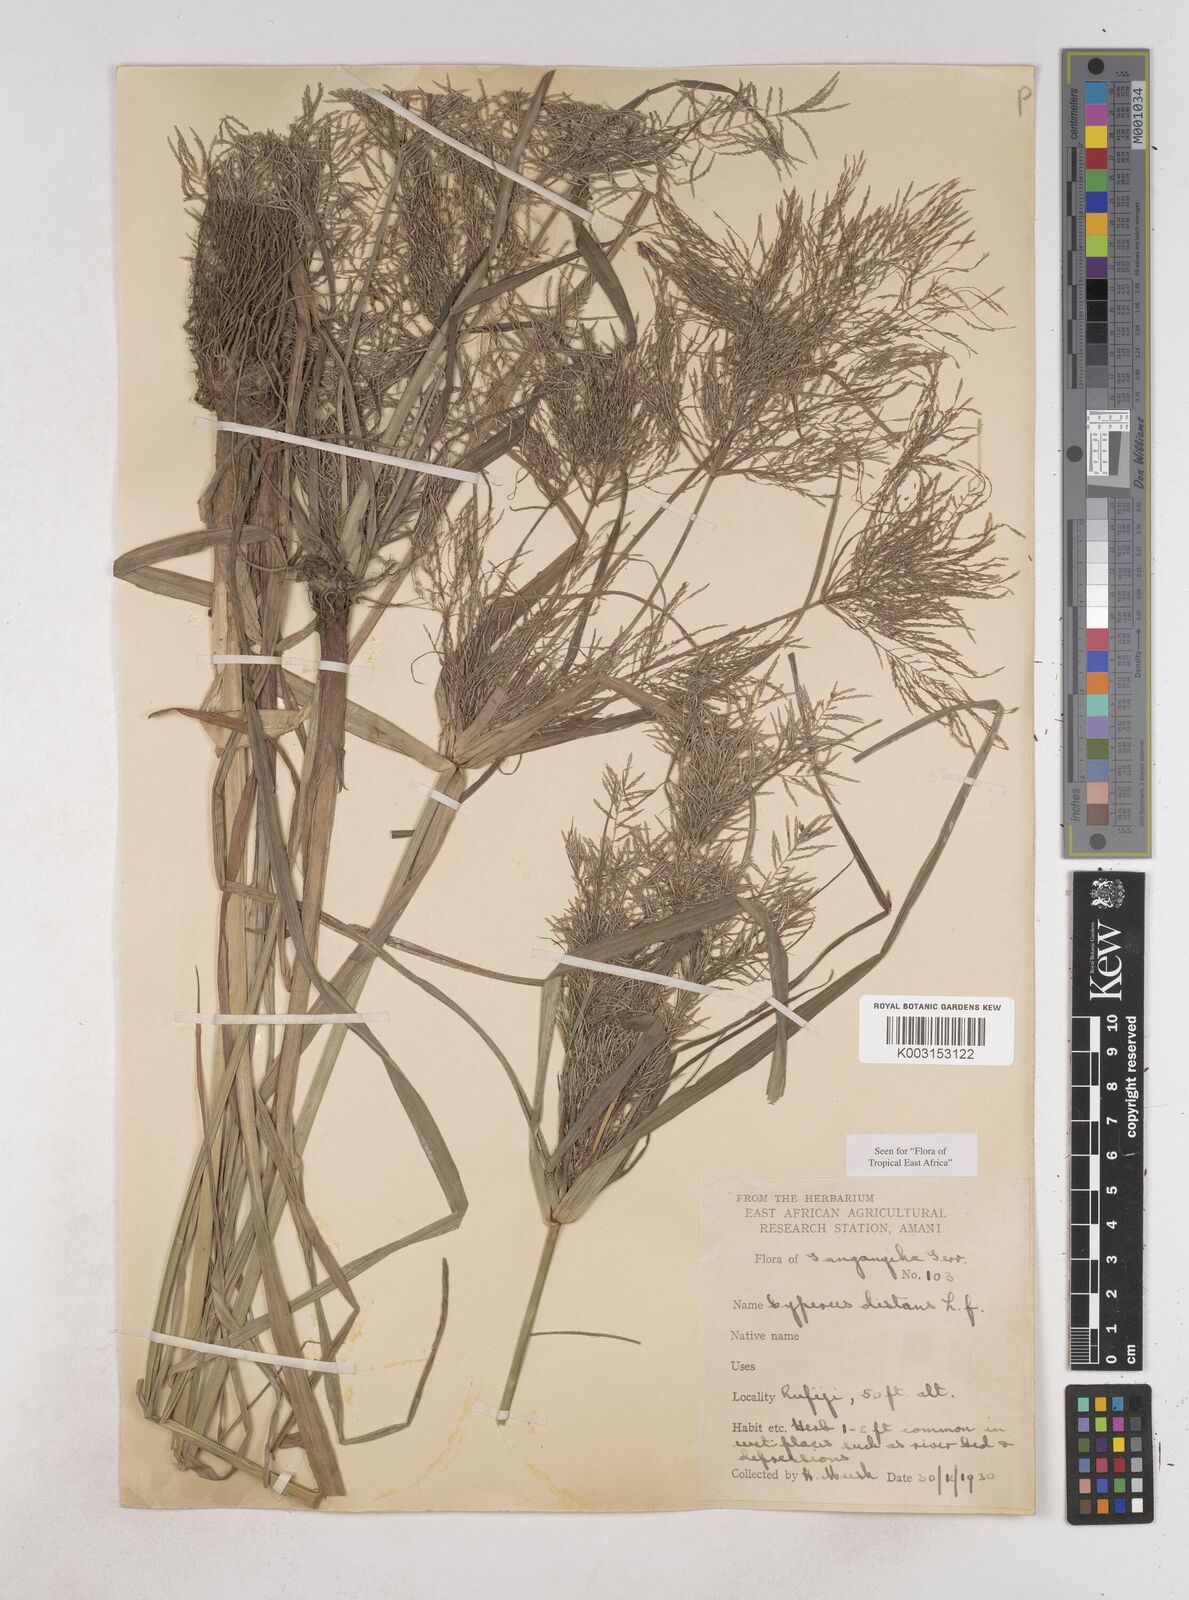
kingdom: Plantae
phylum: Tracheophyta
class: Liliopsida
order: Poales
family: Cyperaceae
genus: Cyperus
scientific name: Cyperus distans
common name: Slender cyperus
